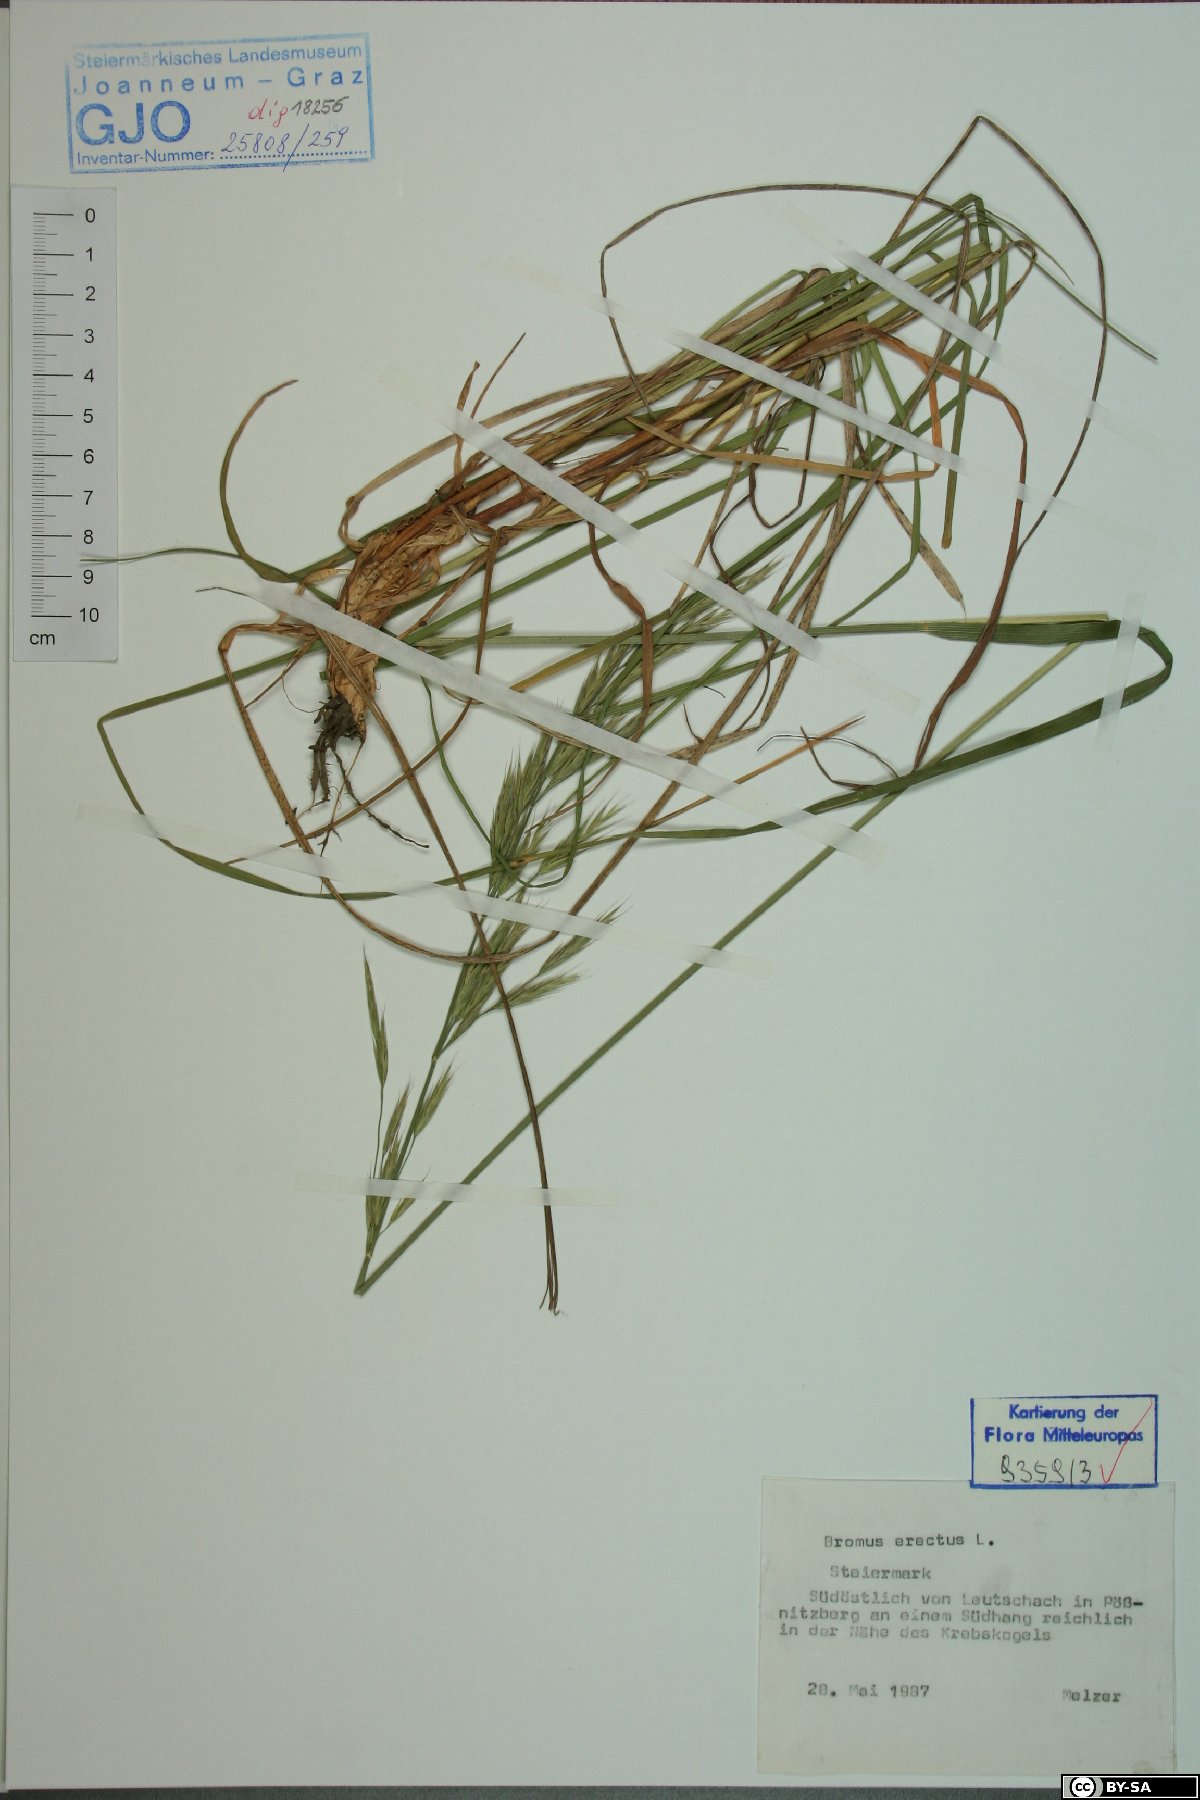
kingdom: Plantae
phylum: Tracheophyta
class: Liliopsida
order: Poales
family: Poaceae
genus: Bromus
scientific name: Bromus erectus
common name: Erect brome
